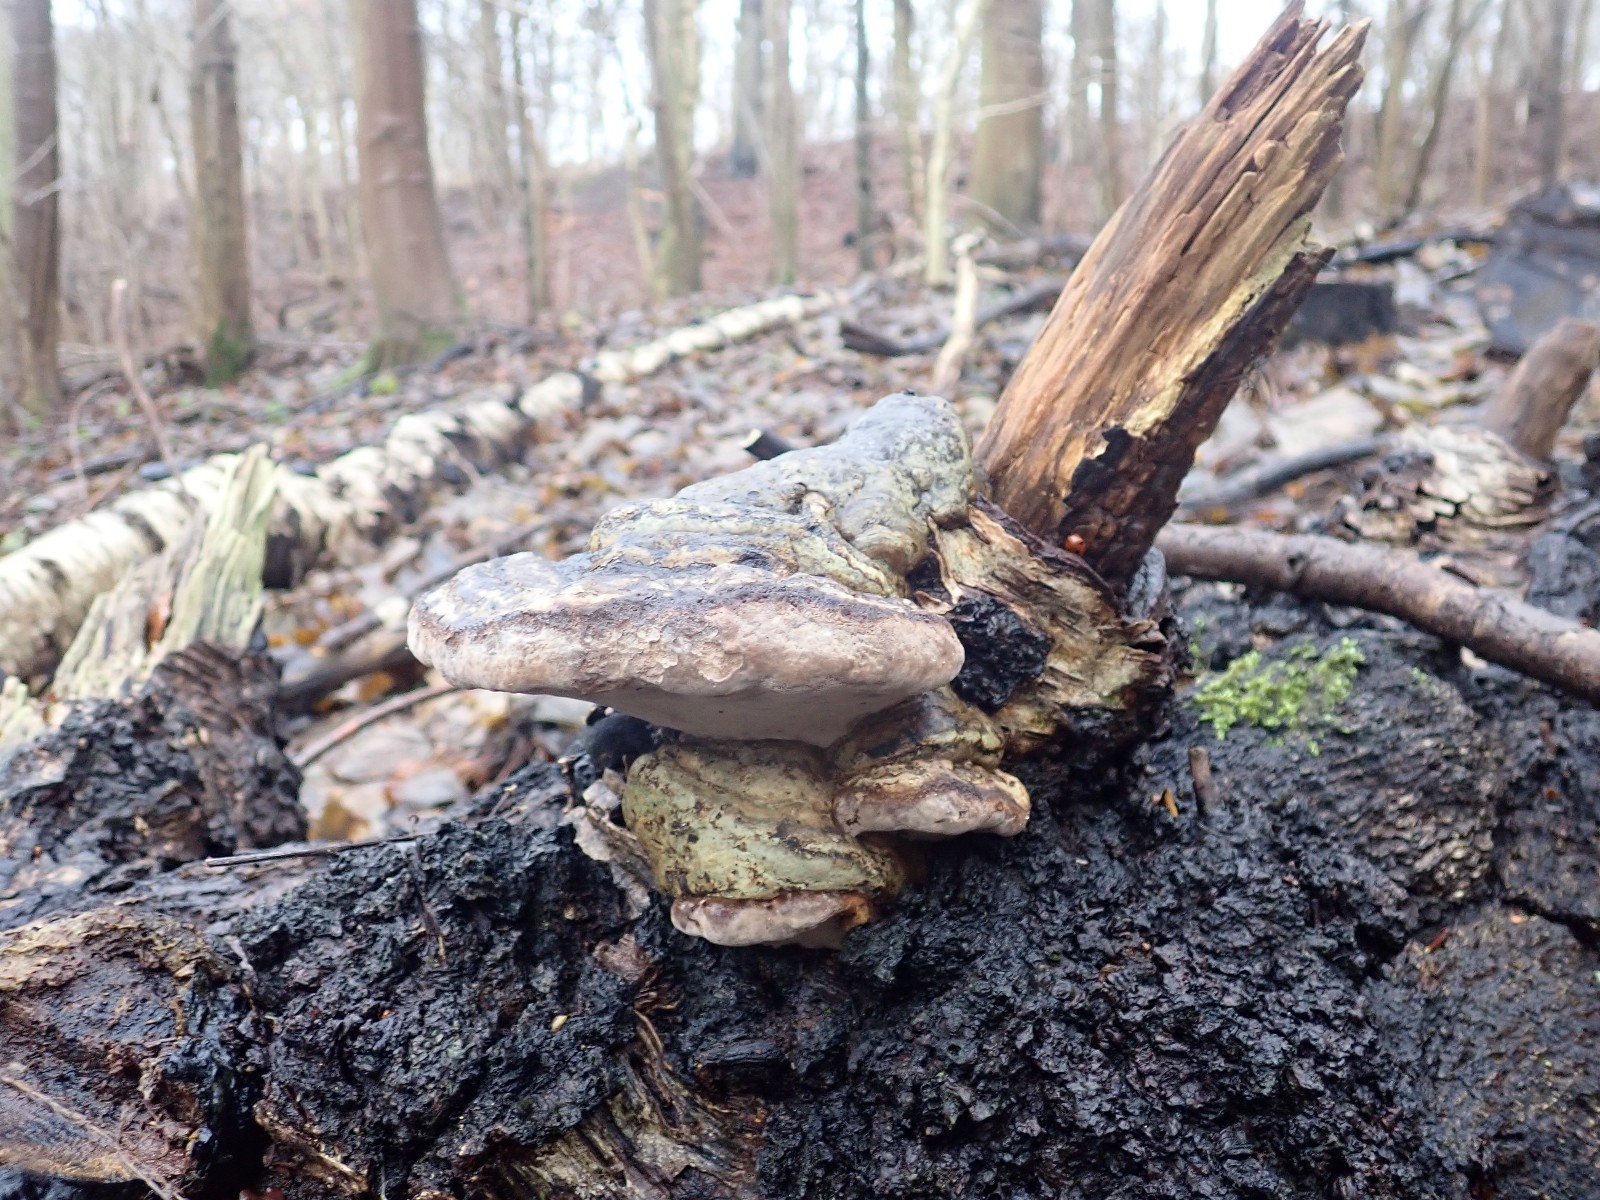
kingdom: Fungi
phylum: Basidiomycota
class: Agaricomycetes
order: Polyporales
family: Polyporaceae
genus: Fomes
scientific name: Fomes fomentarius
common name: tøndersvamp
